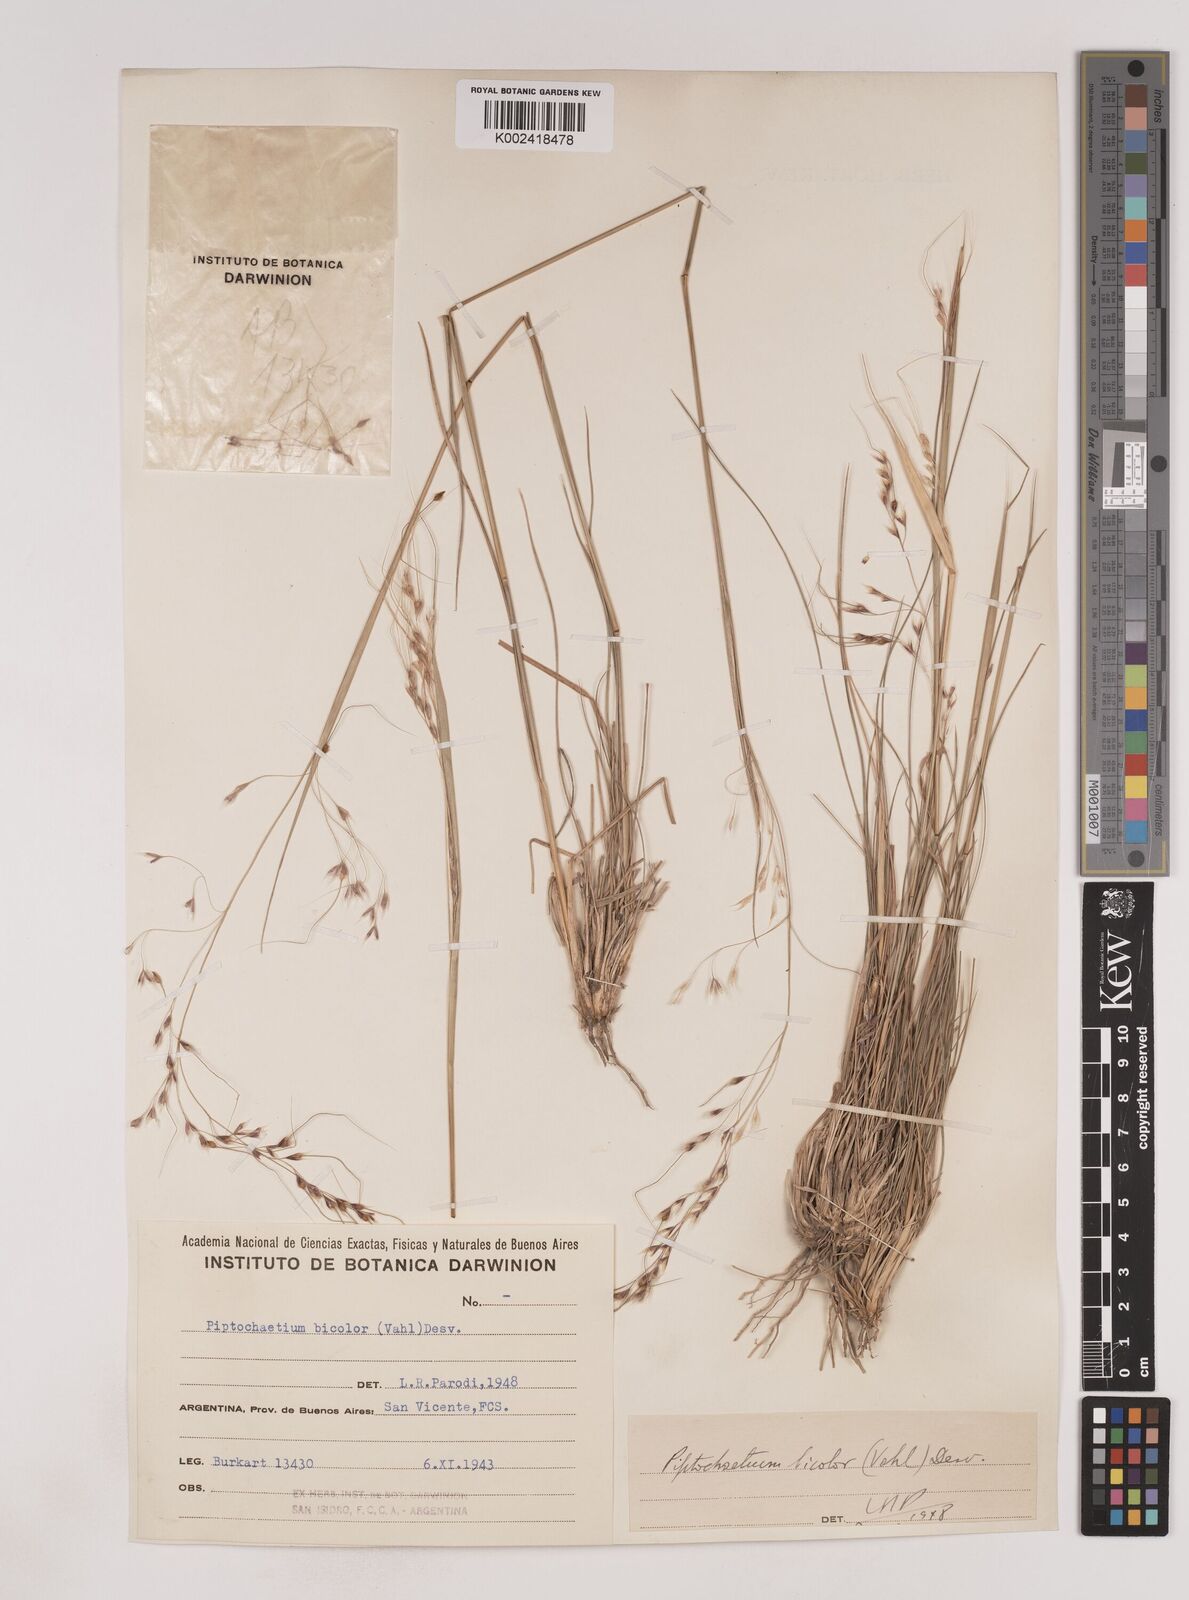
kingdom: Plantae
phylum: Tracheophyta
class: Liliopsida
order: Poales
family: Poaceae
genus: Piptochaetium
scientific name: Piptochaetium bicolor
